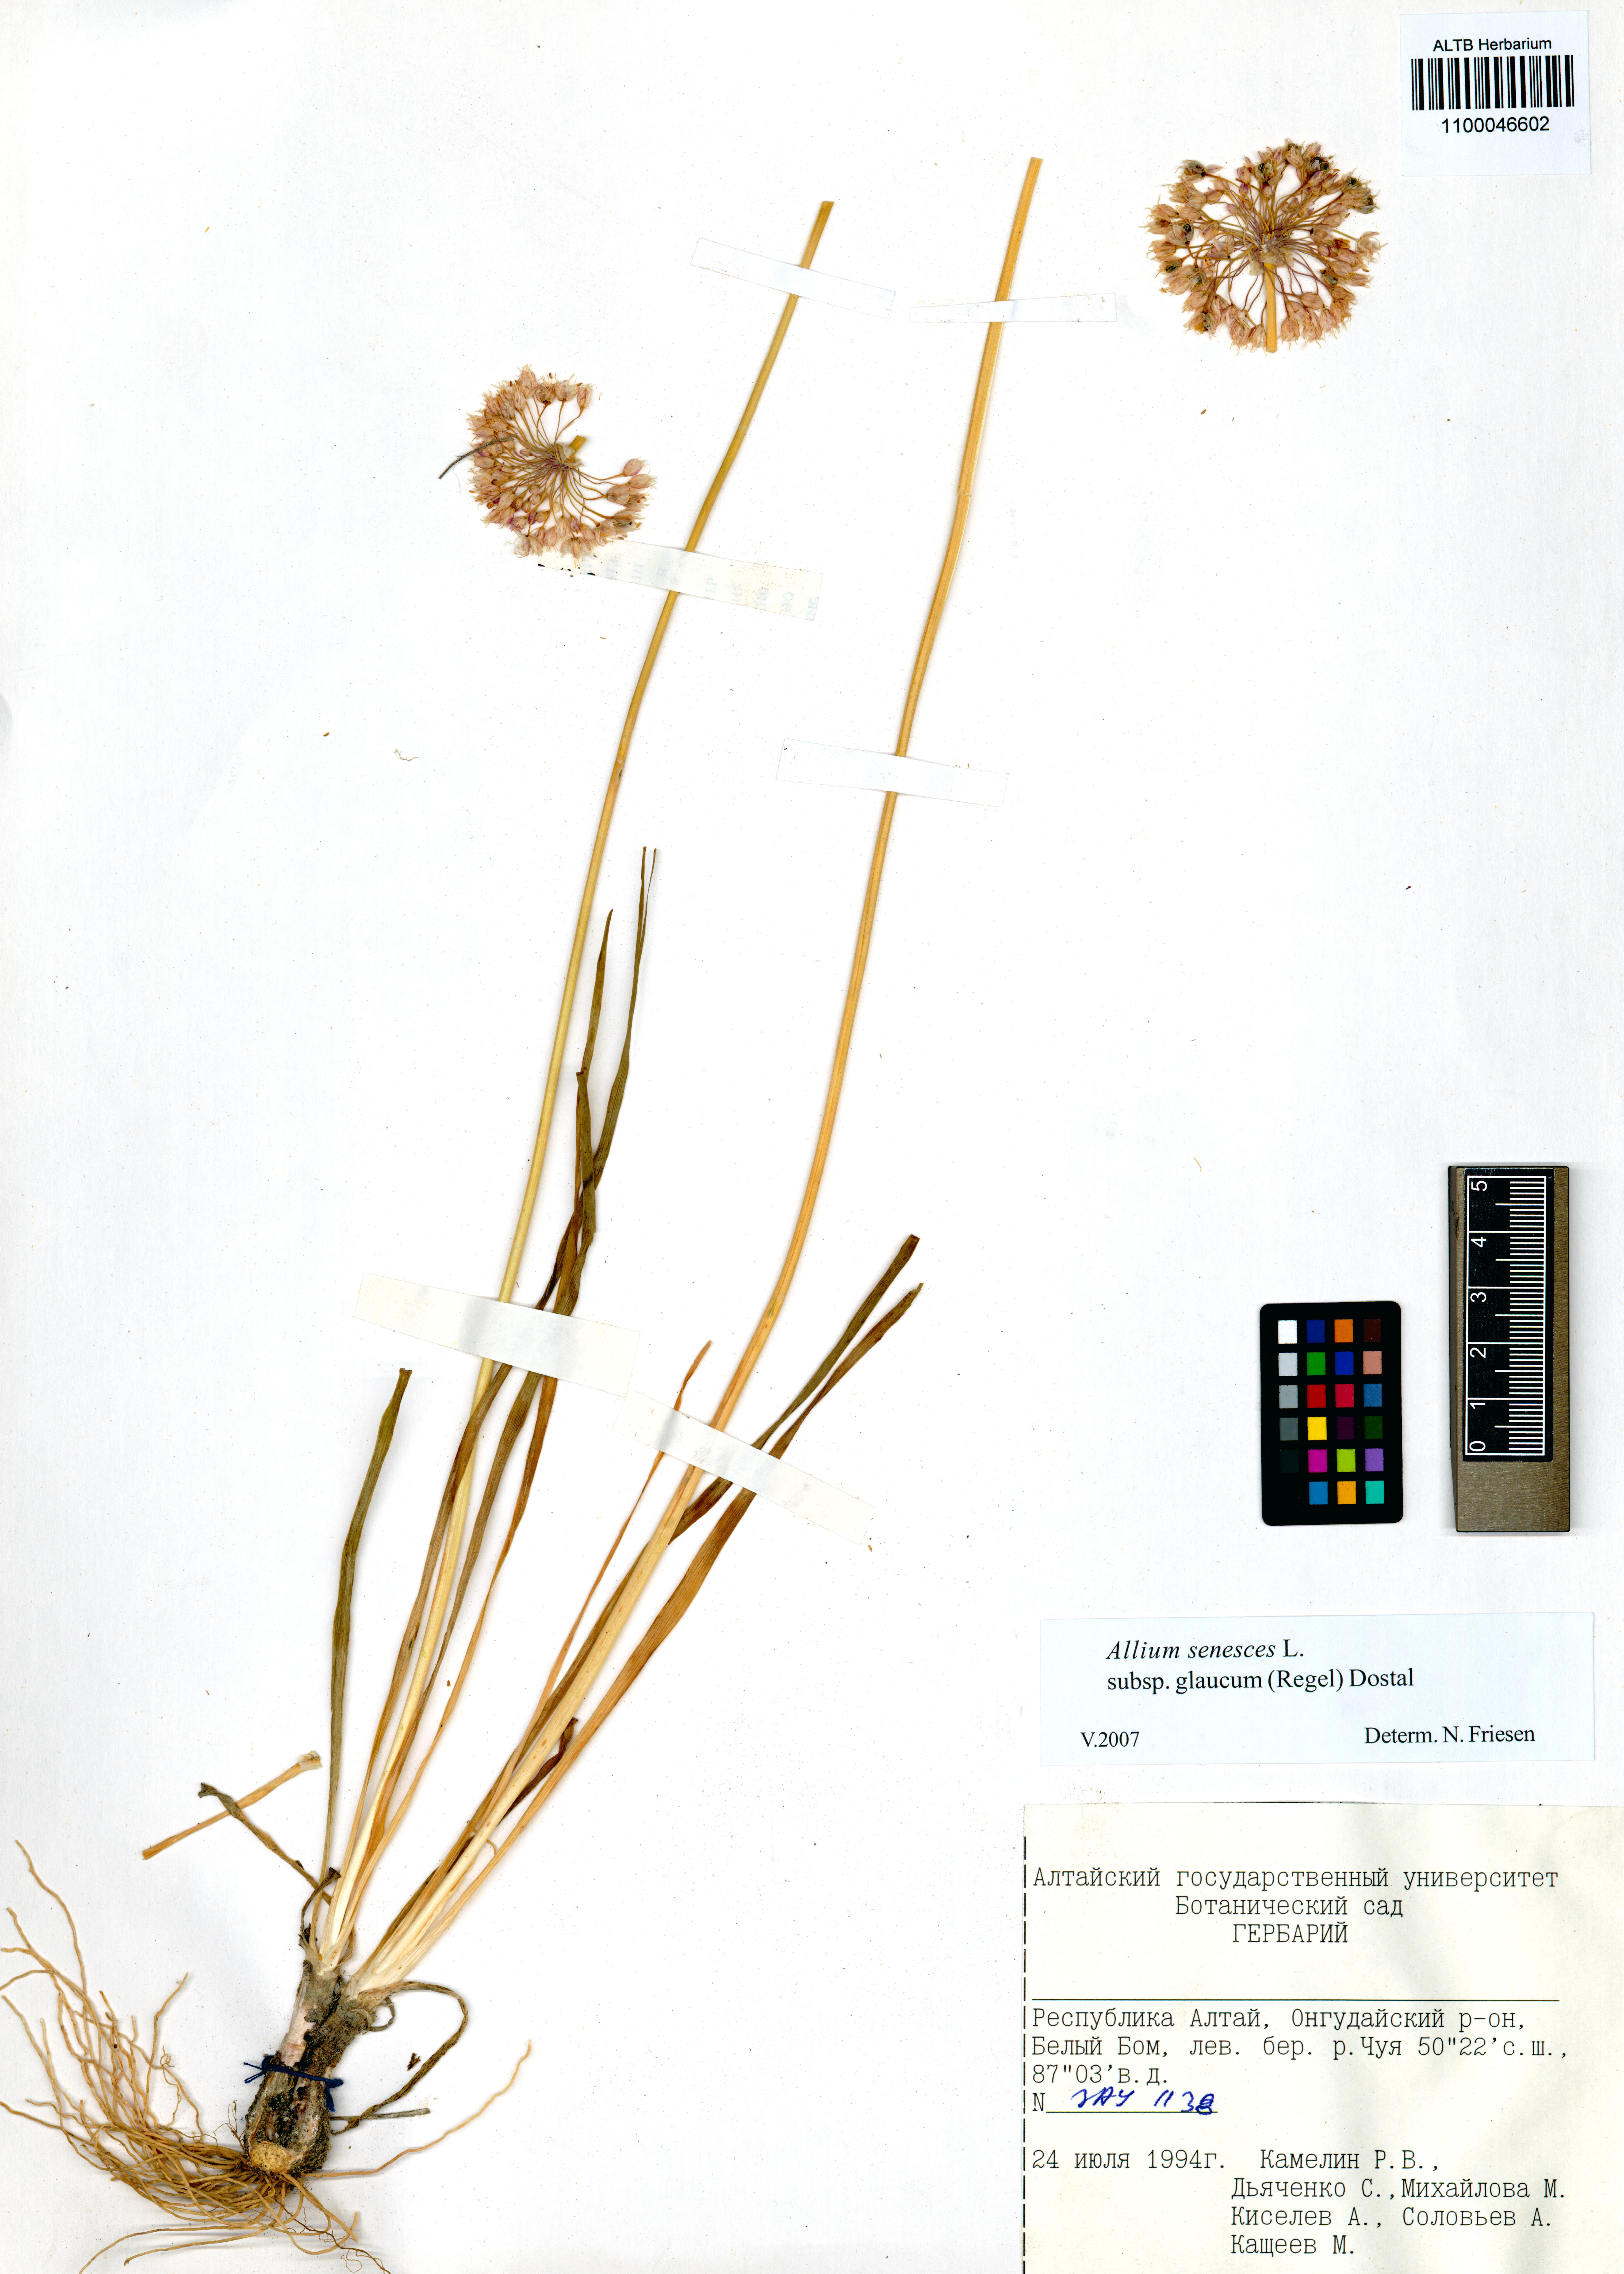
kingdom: Plantae
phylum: Tracheophyta
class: Liliopsida
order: Asparagales
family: Amaryllidaceae
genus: Allium
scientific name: Allium senescens
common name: German garlic
